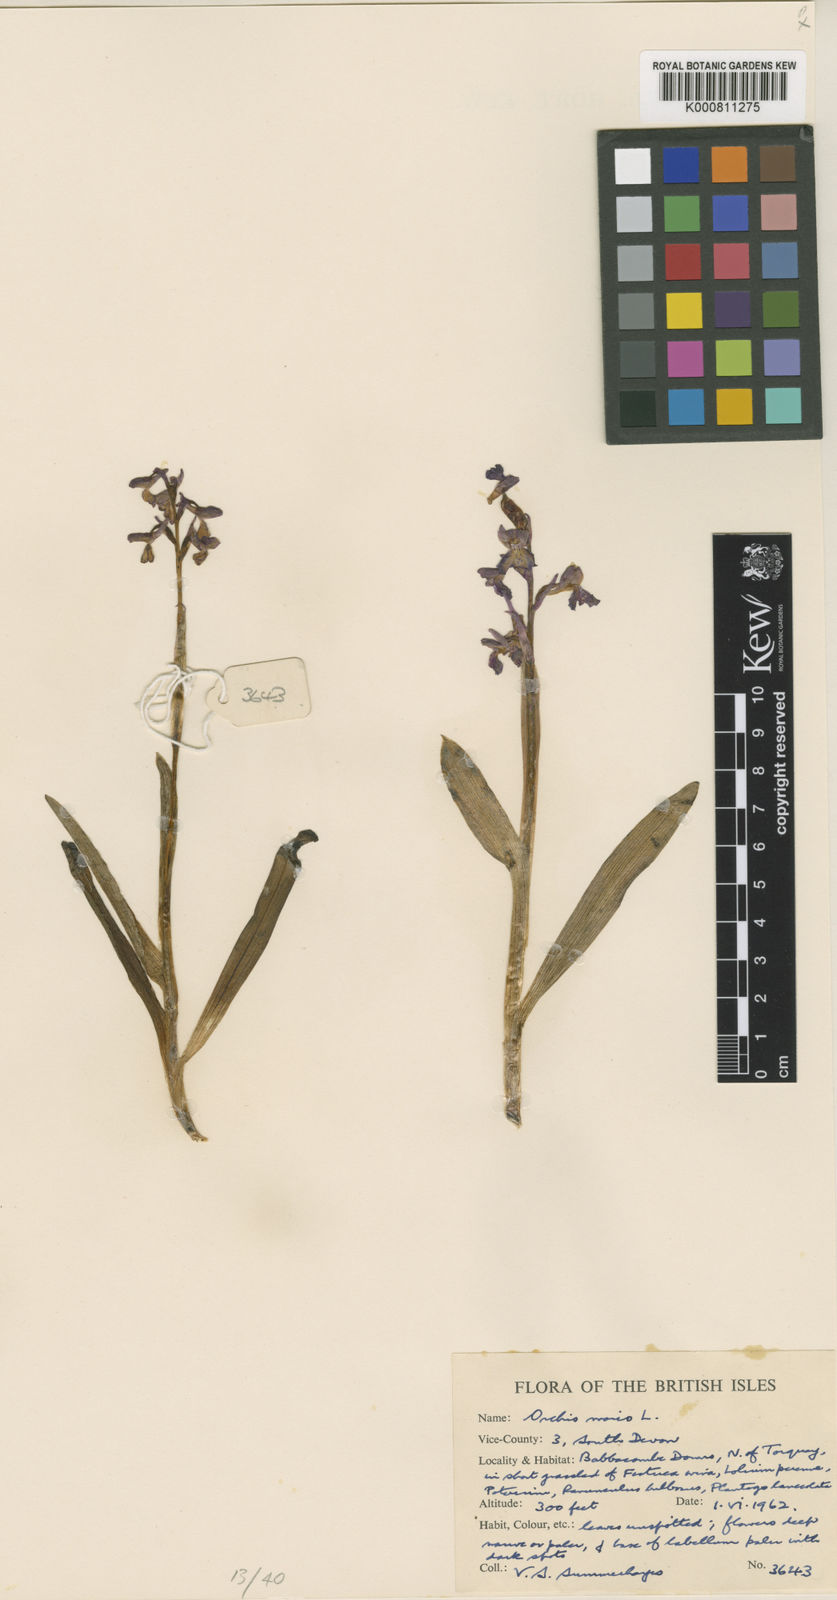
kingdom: Plantae
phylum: Tracheophyta
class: Liliopsida
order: Asparagales
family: Orchidaceae
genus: Anacamptis
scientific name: Anacamptis morio
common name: Green-winged orchid
